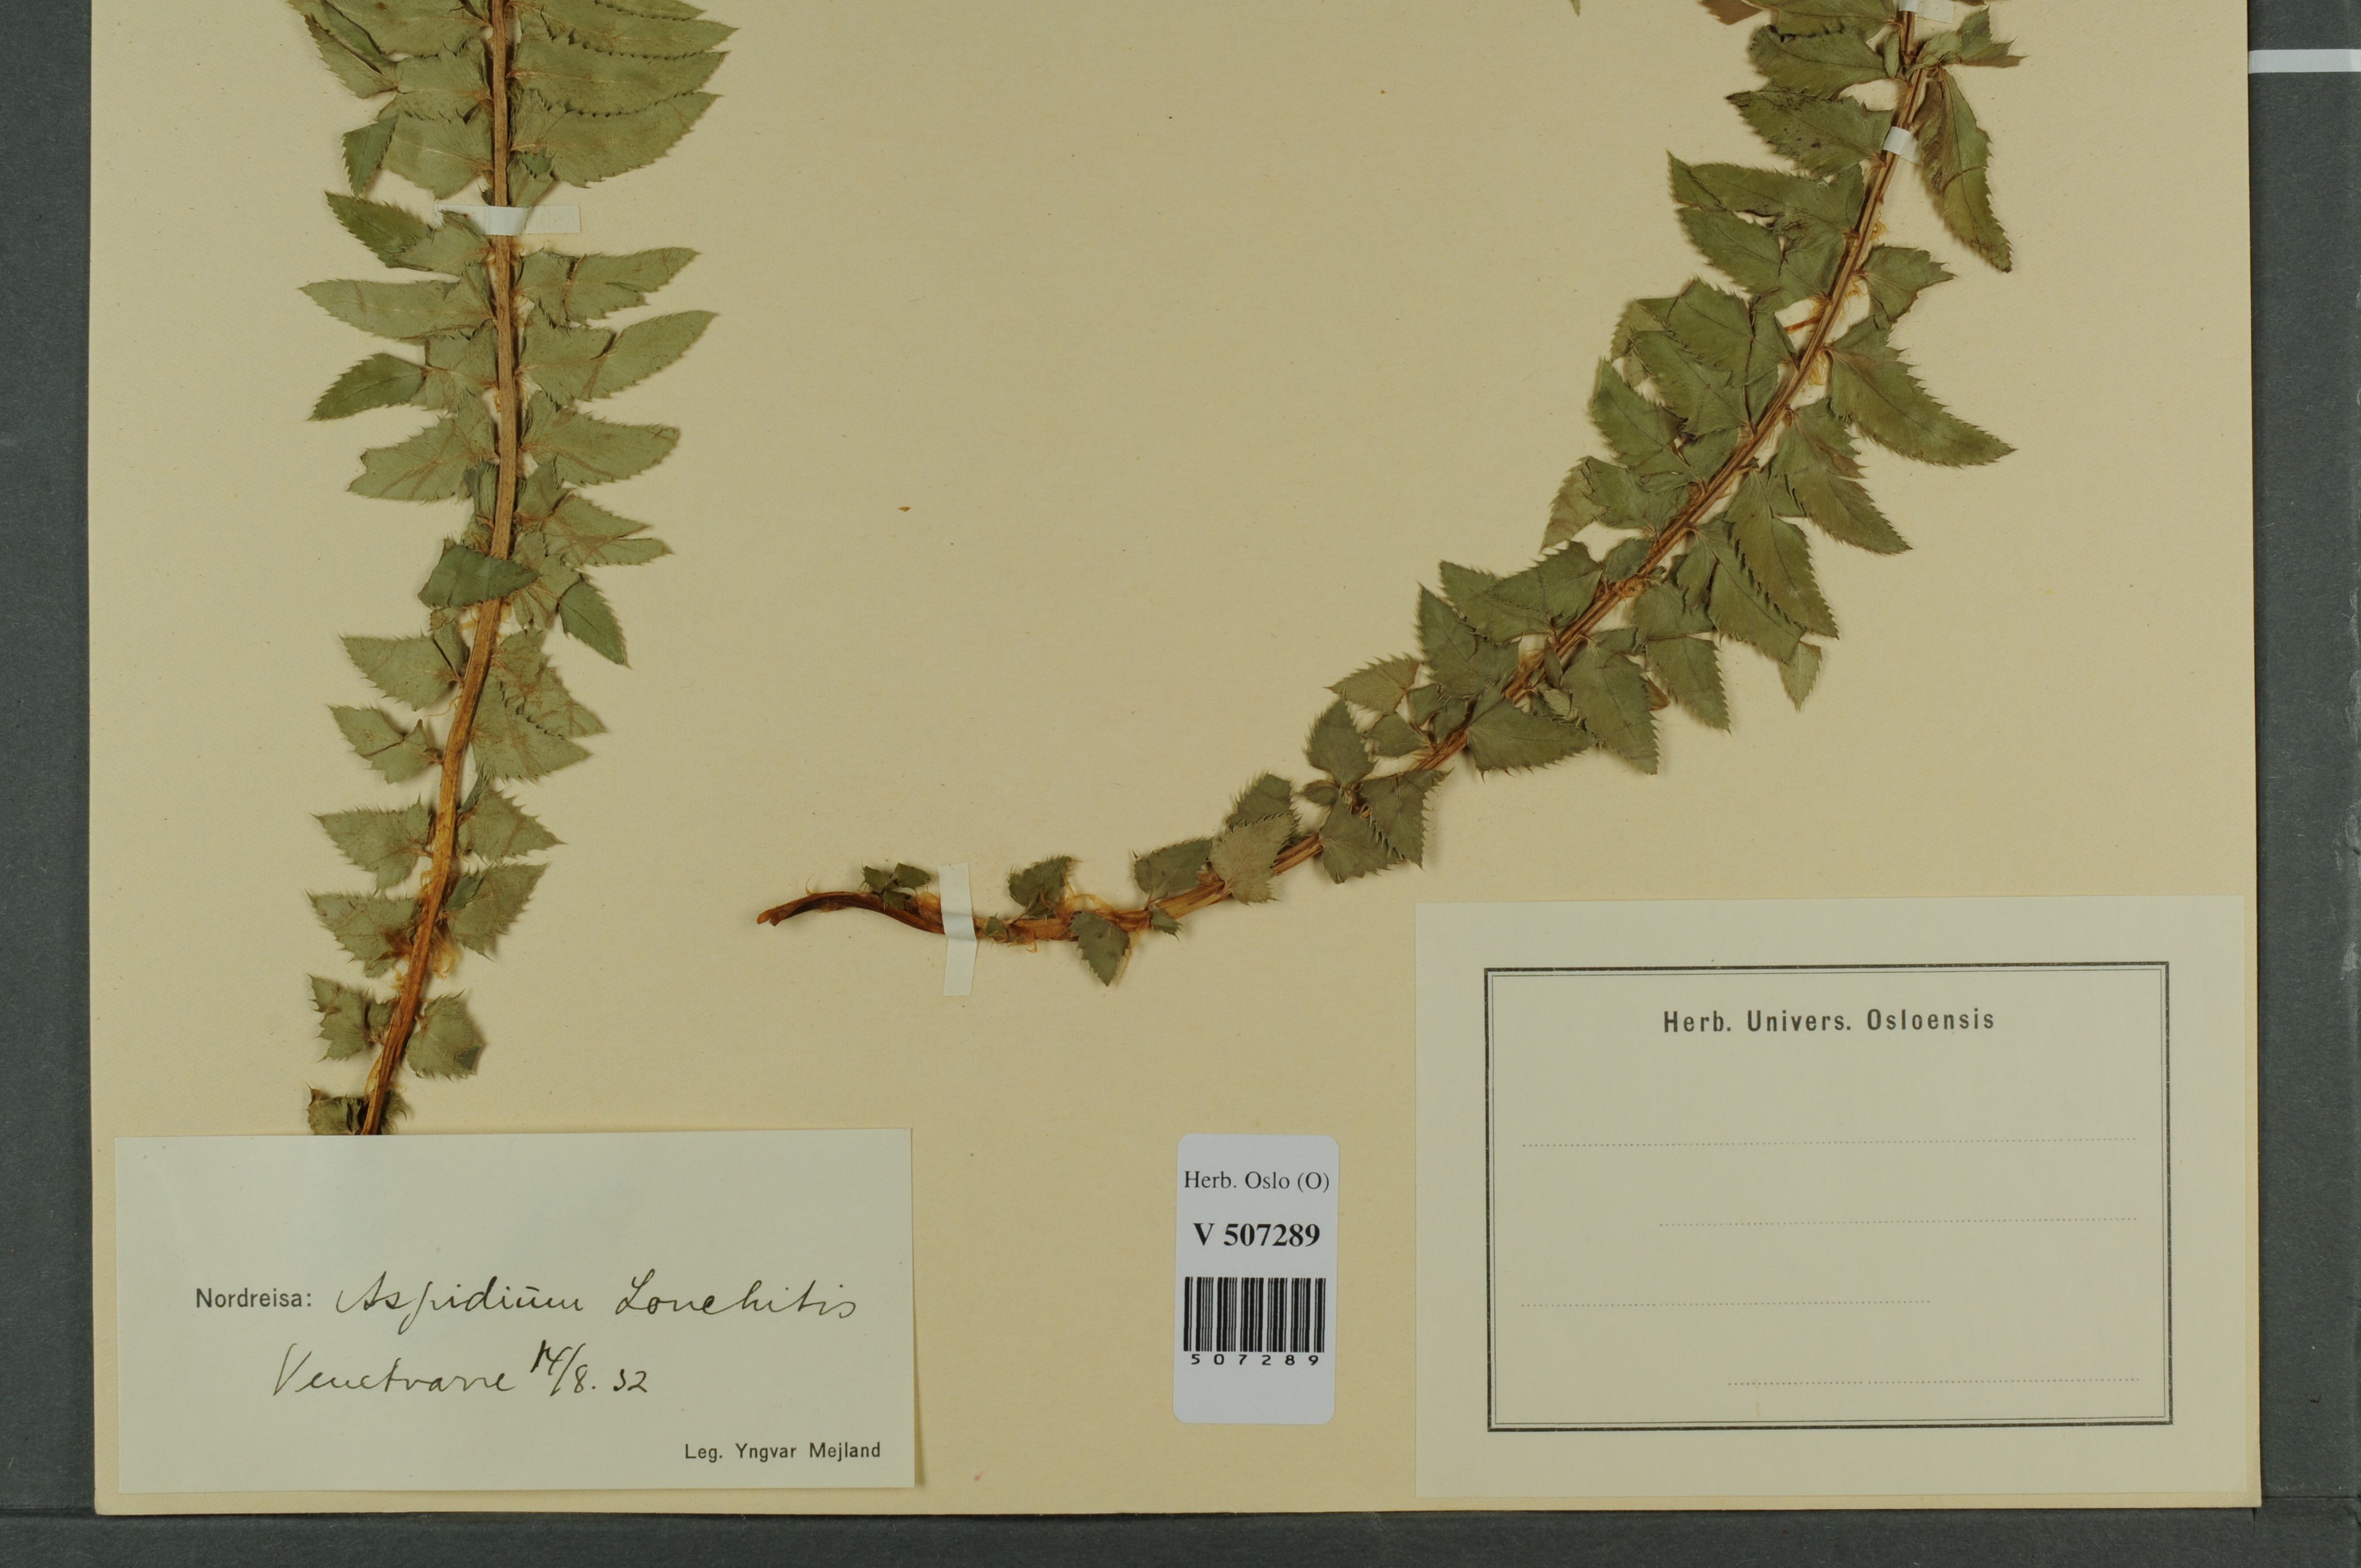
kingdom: Plantae
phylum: Tracheophyta
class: Polypodiopsida
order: Polypodiales
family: Dryopteridaceae
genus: Polystichum
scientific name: Polystichum lonchitis
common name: Holly fern
